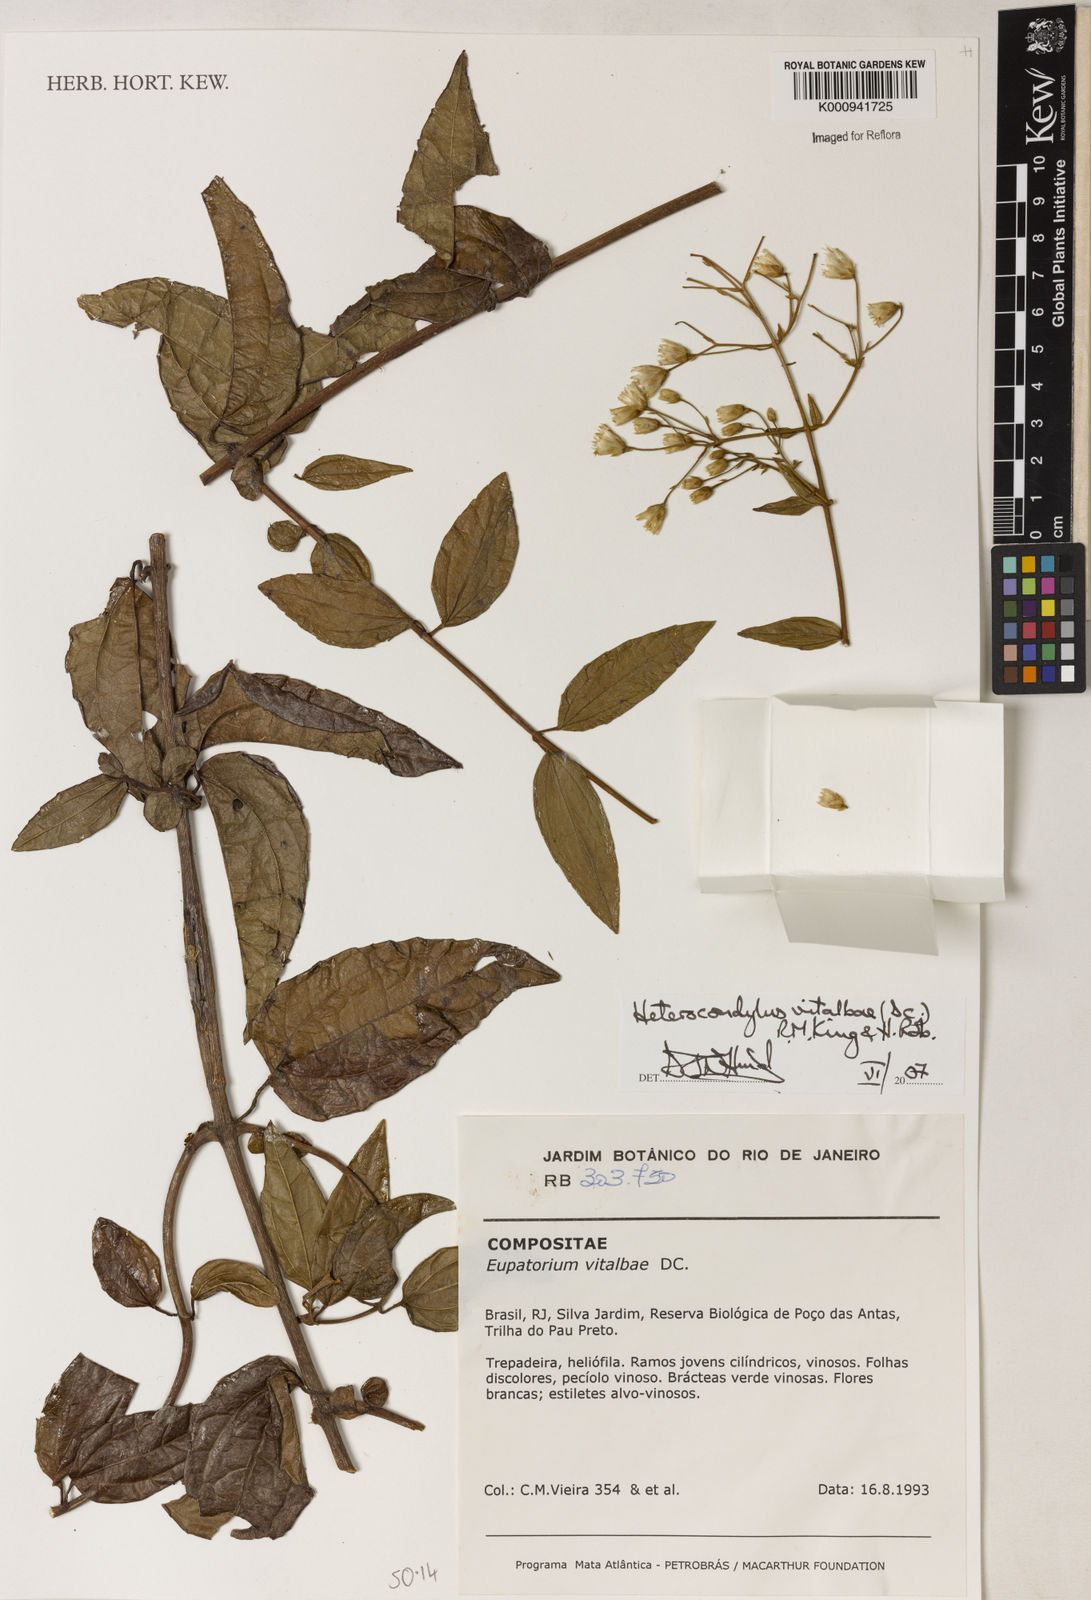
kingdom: Plantae
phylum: Tracheophyta
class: Magnoliopsida
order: Asterales
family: Asteraceae
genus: Heterocondylus
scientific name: Heterocondylus vitalbae
